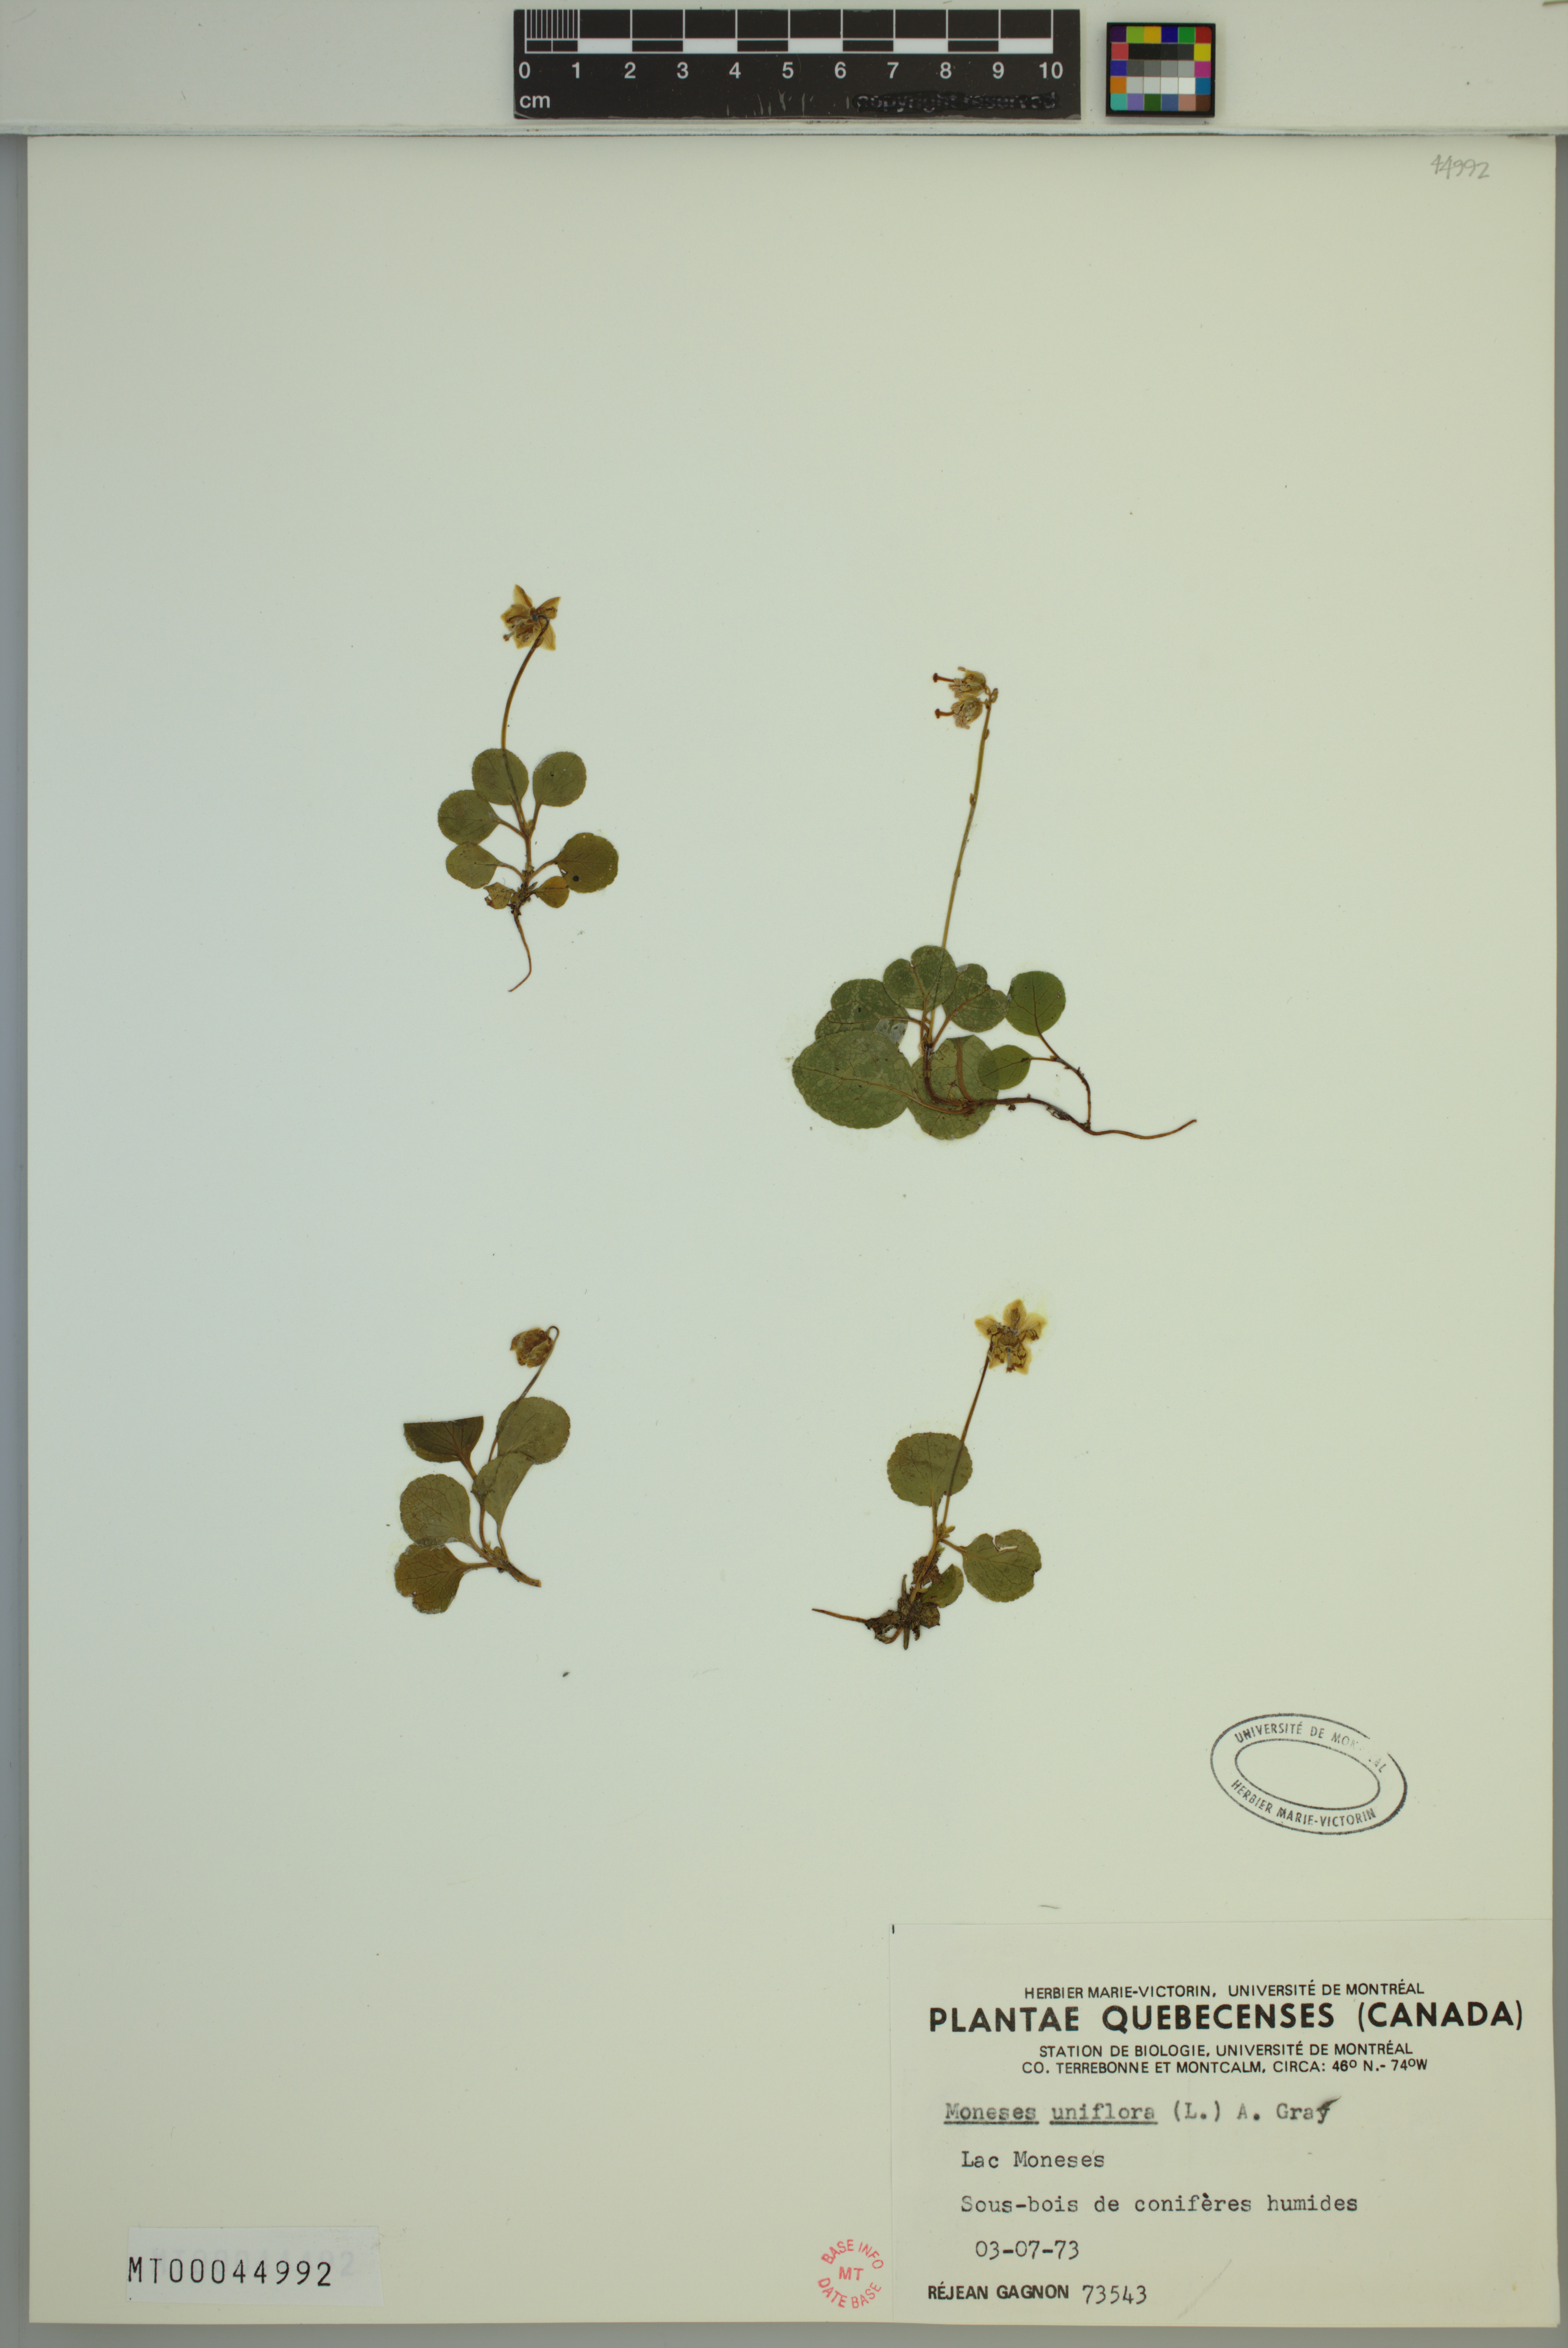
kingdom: Plantae
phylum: Tracheophyta
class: Magnoliopsida
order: Ericales
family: Ericaceae
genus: Moneses
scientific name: Moneses uniflora
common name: One-flowered wintergreen
